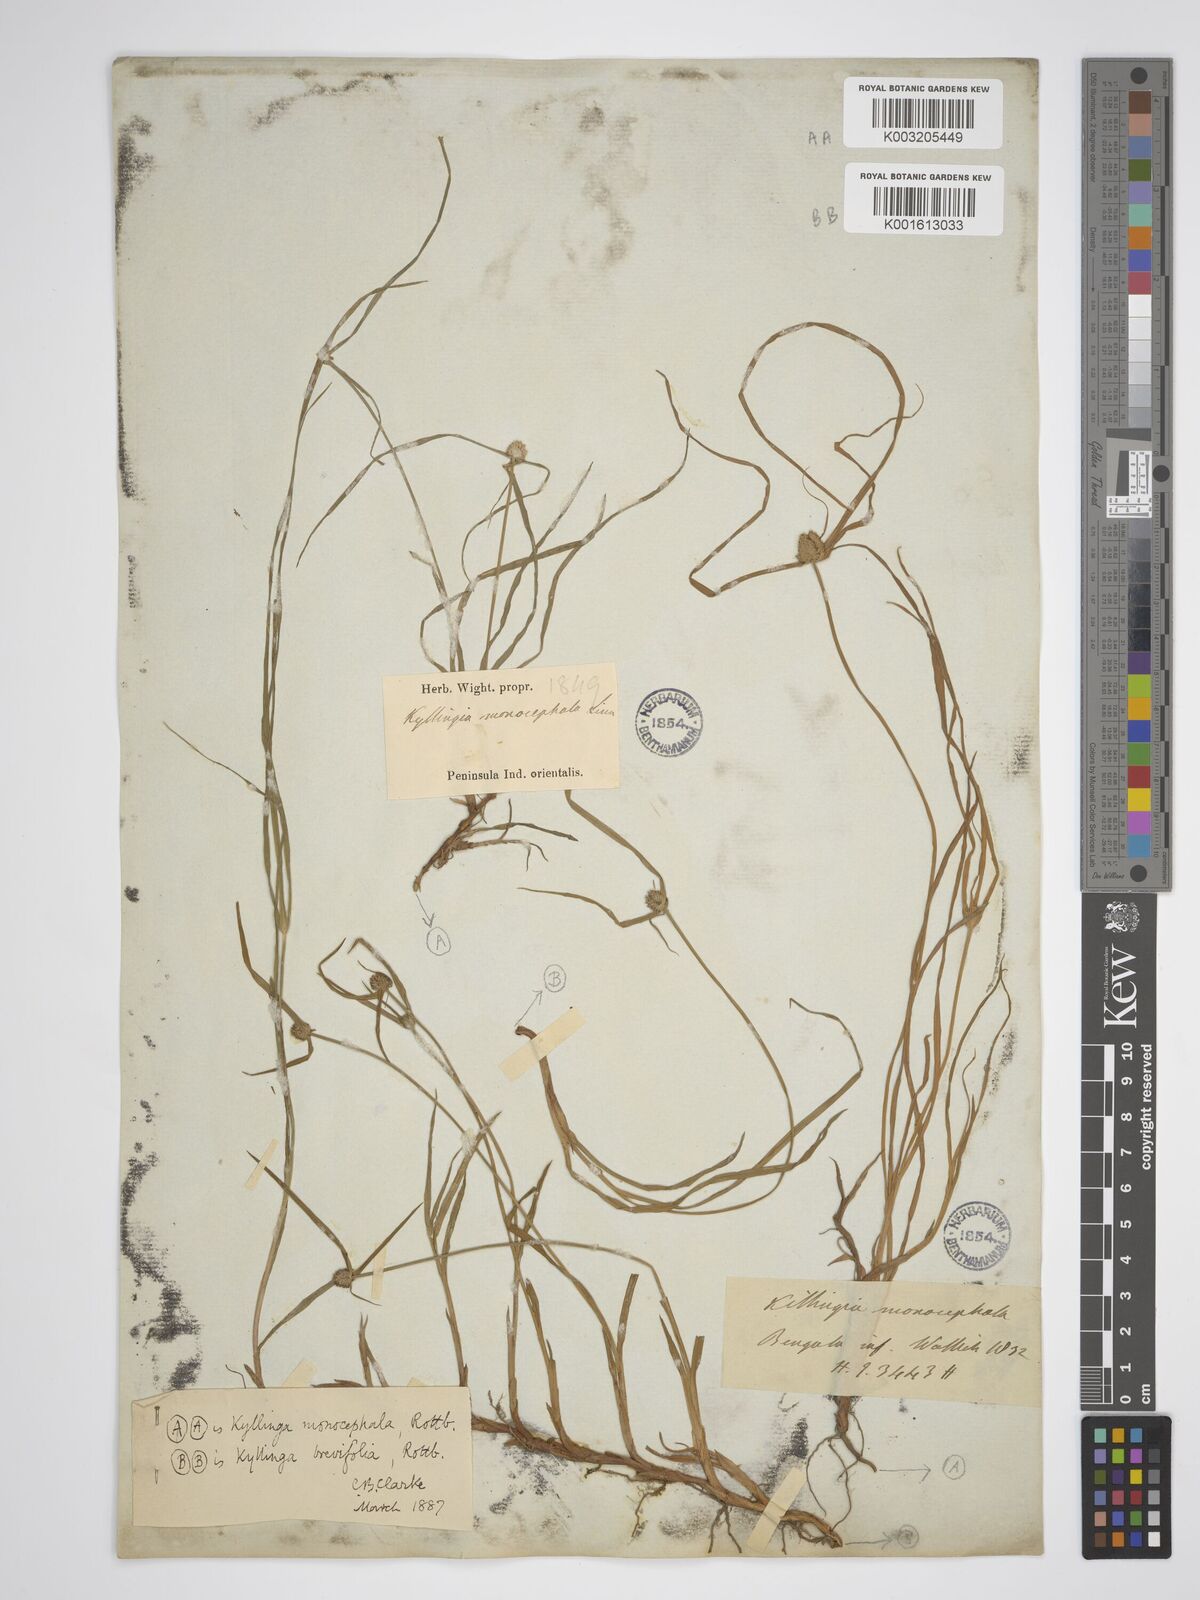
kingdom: Plantae
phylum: Tracheophyta
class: Liliopsida
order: Poales
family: Cyperaceae
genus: Rhynchospora
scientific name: Rhynchospora colorata
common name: Star sedge
